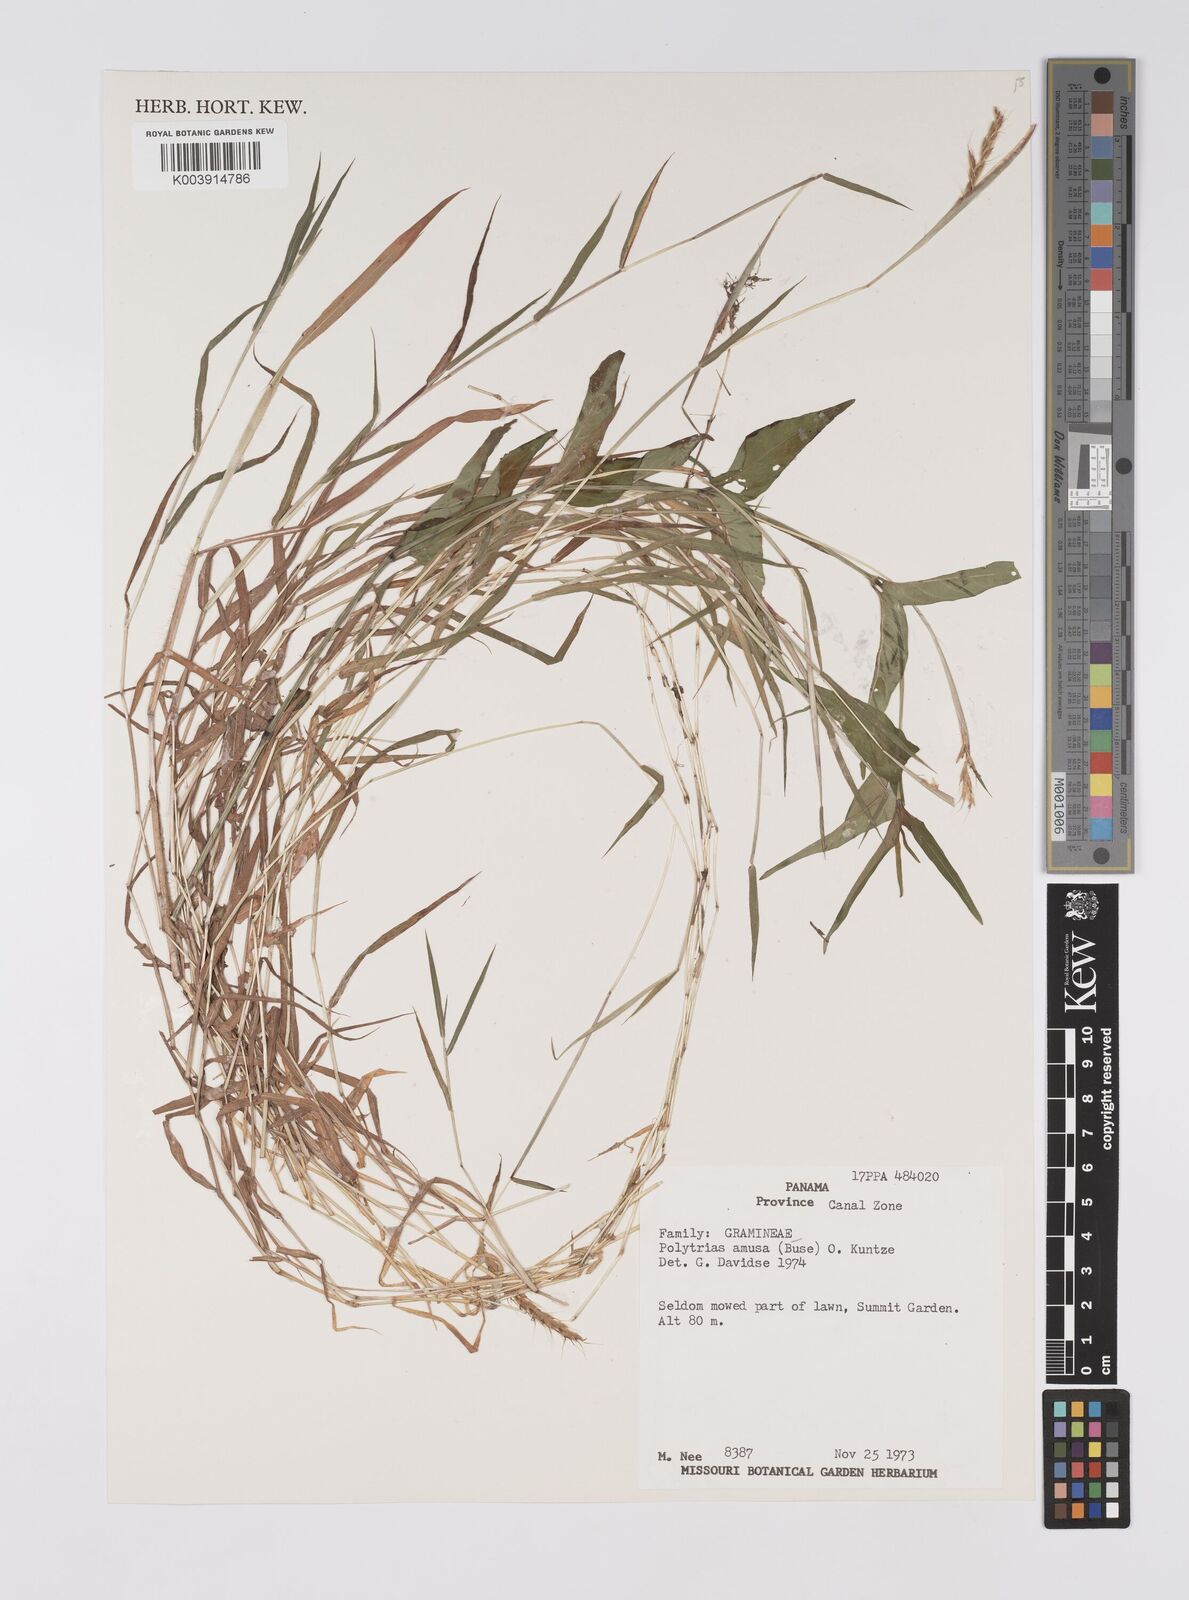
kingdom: Plantae
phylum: Tracheophyta
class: Liliopsida
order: Poales
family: Poaceae
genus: Polytrias
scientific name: Polytrias indica
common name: Indian murainagrass
